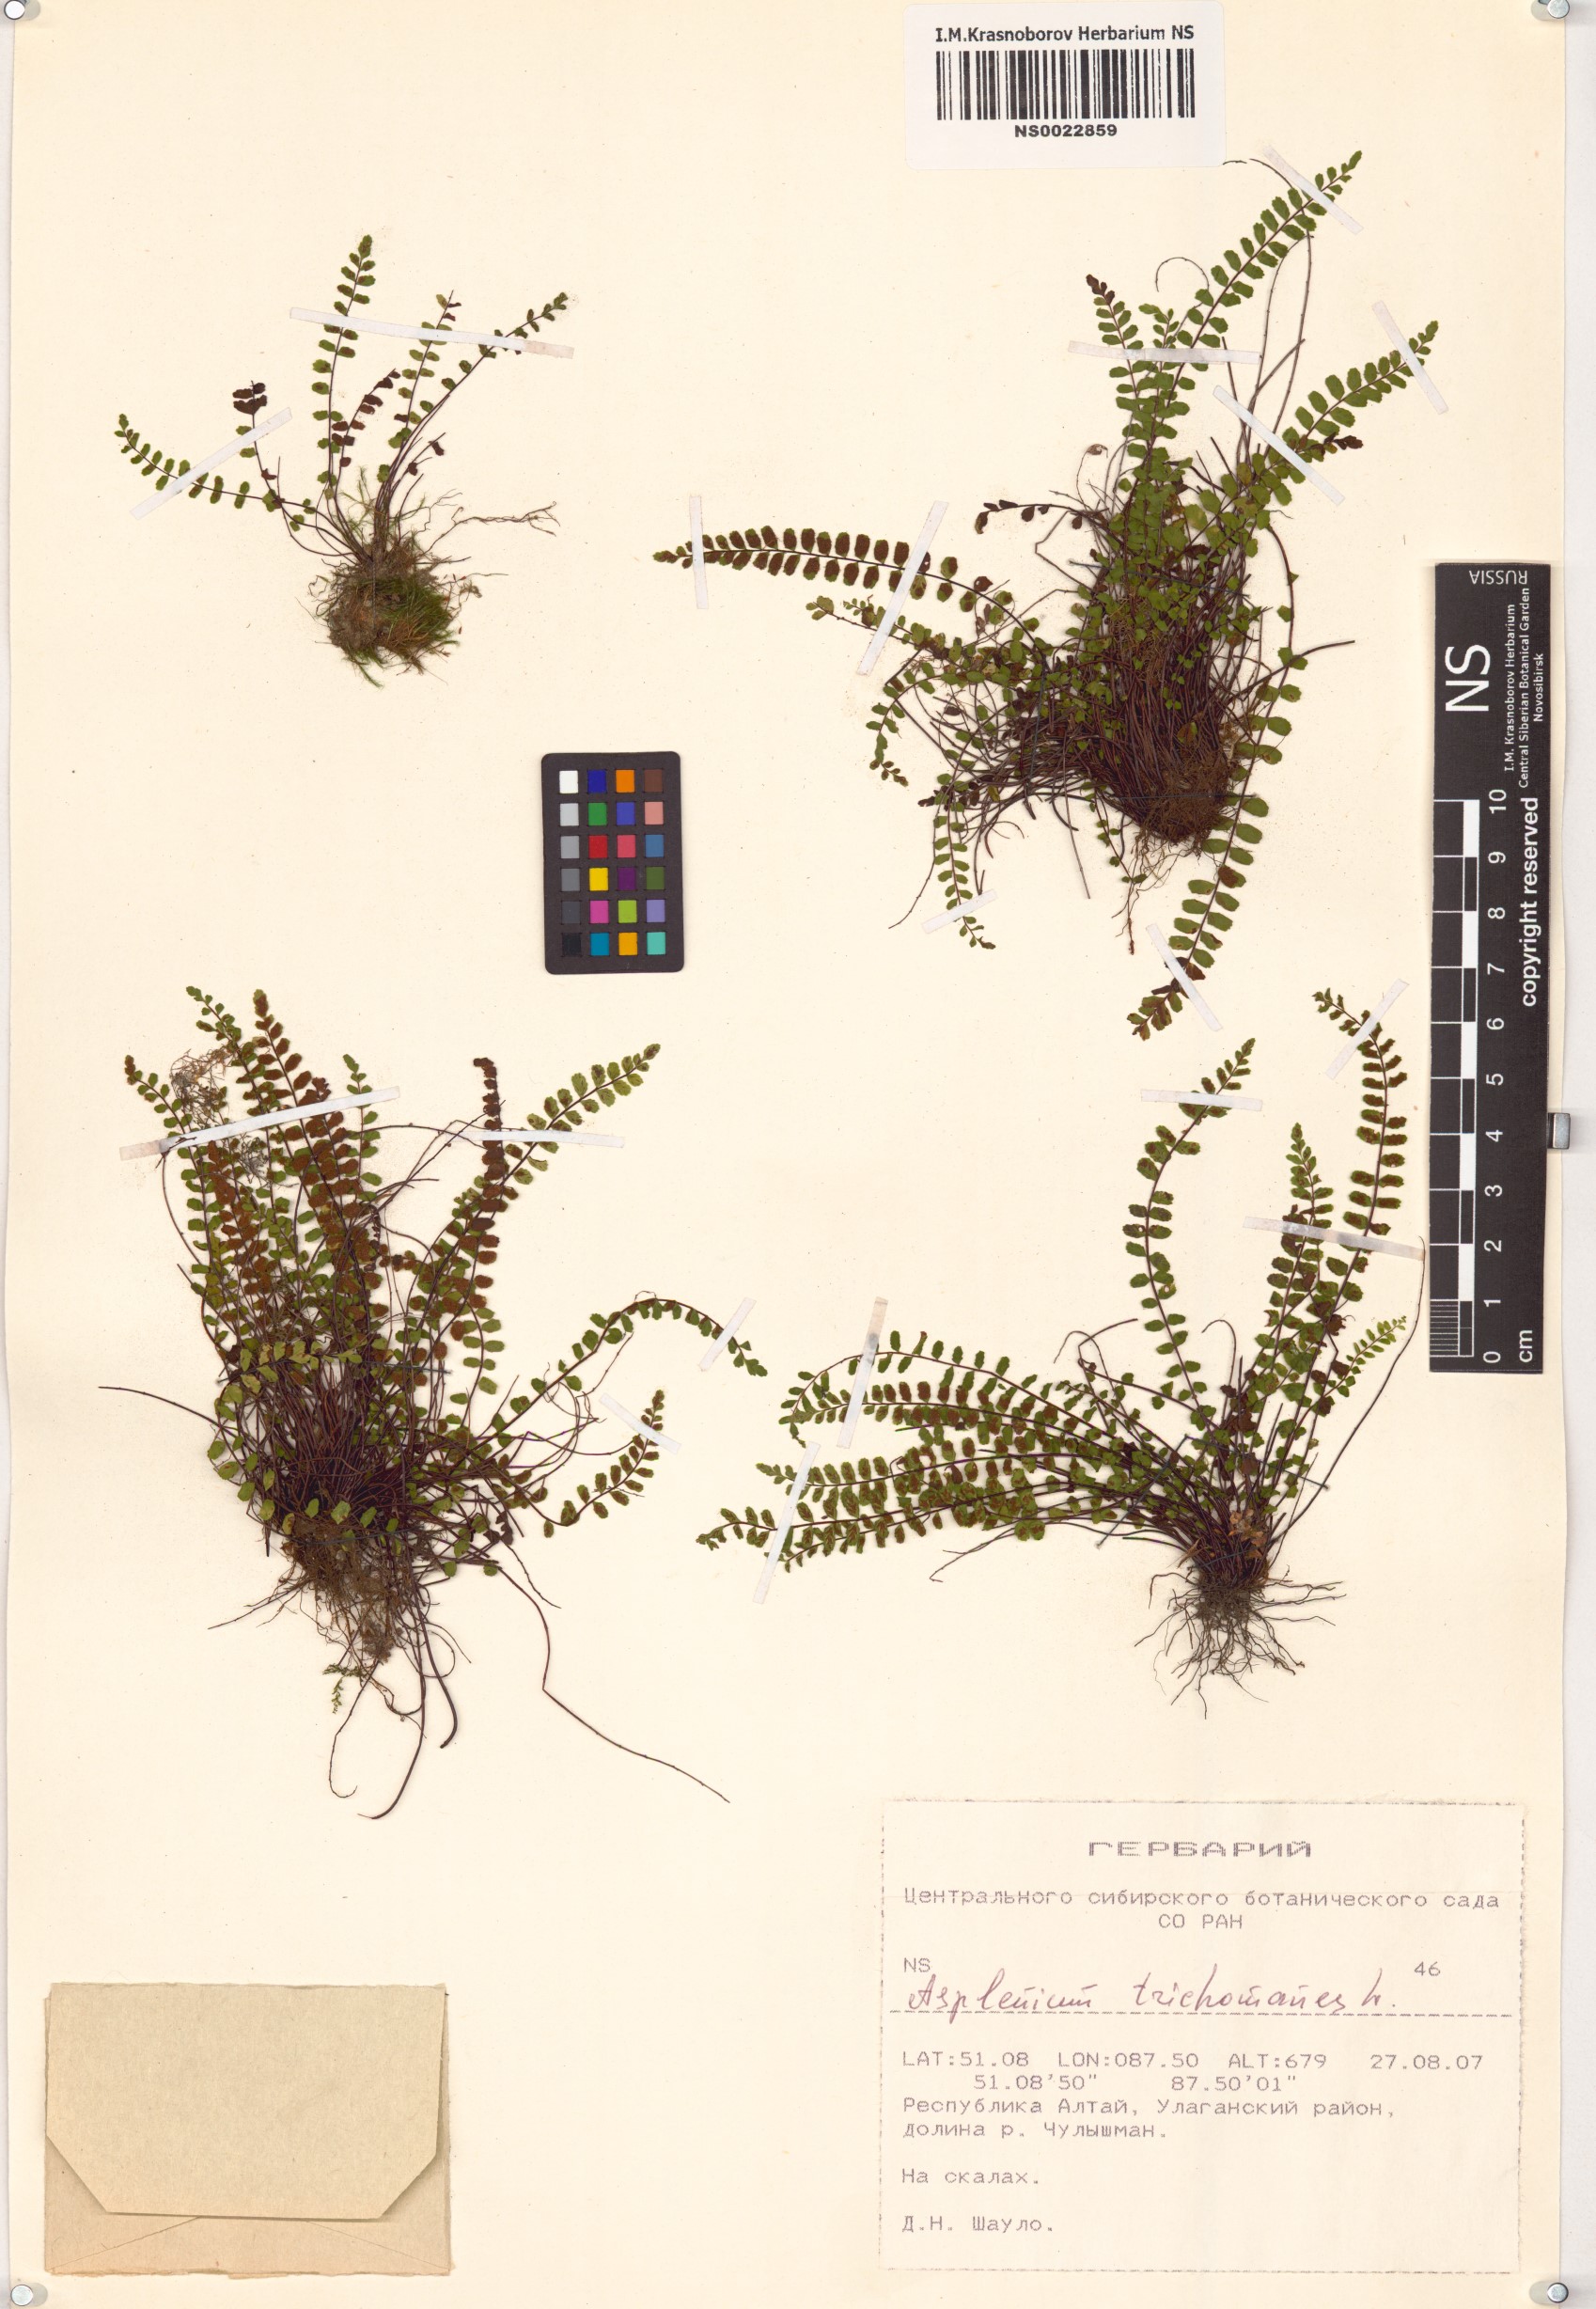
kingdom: Plantae
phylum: Tracheophyta
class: Polypodiopsida
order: Polypodiales
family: Aspleniaceae
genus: Asplenium
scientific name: Asplenium trichomanes
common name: Maidenhair spleenwort
